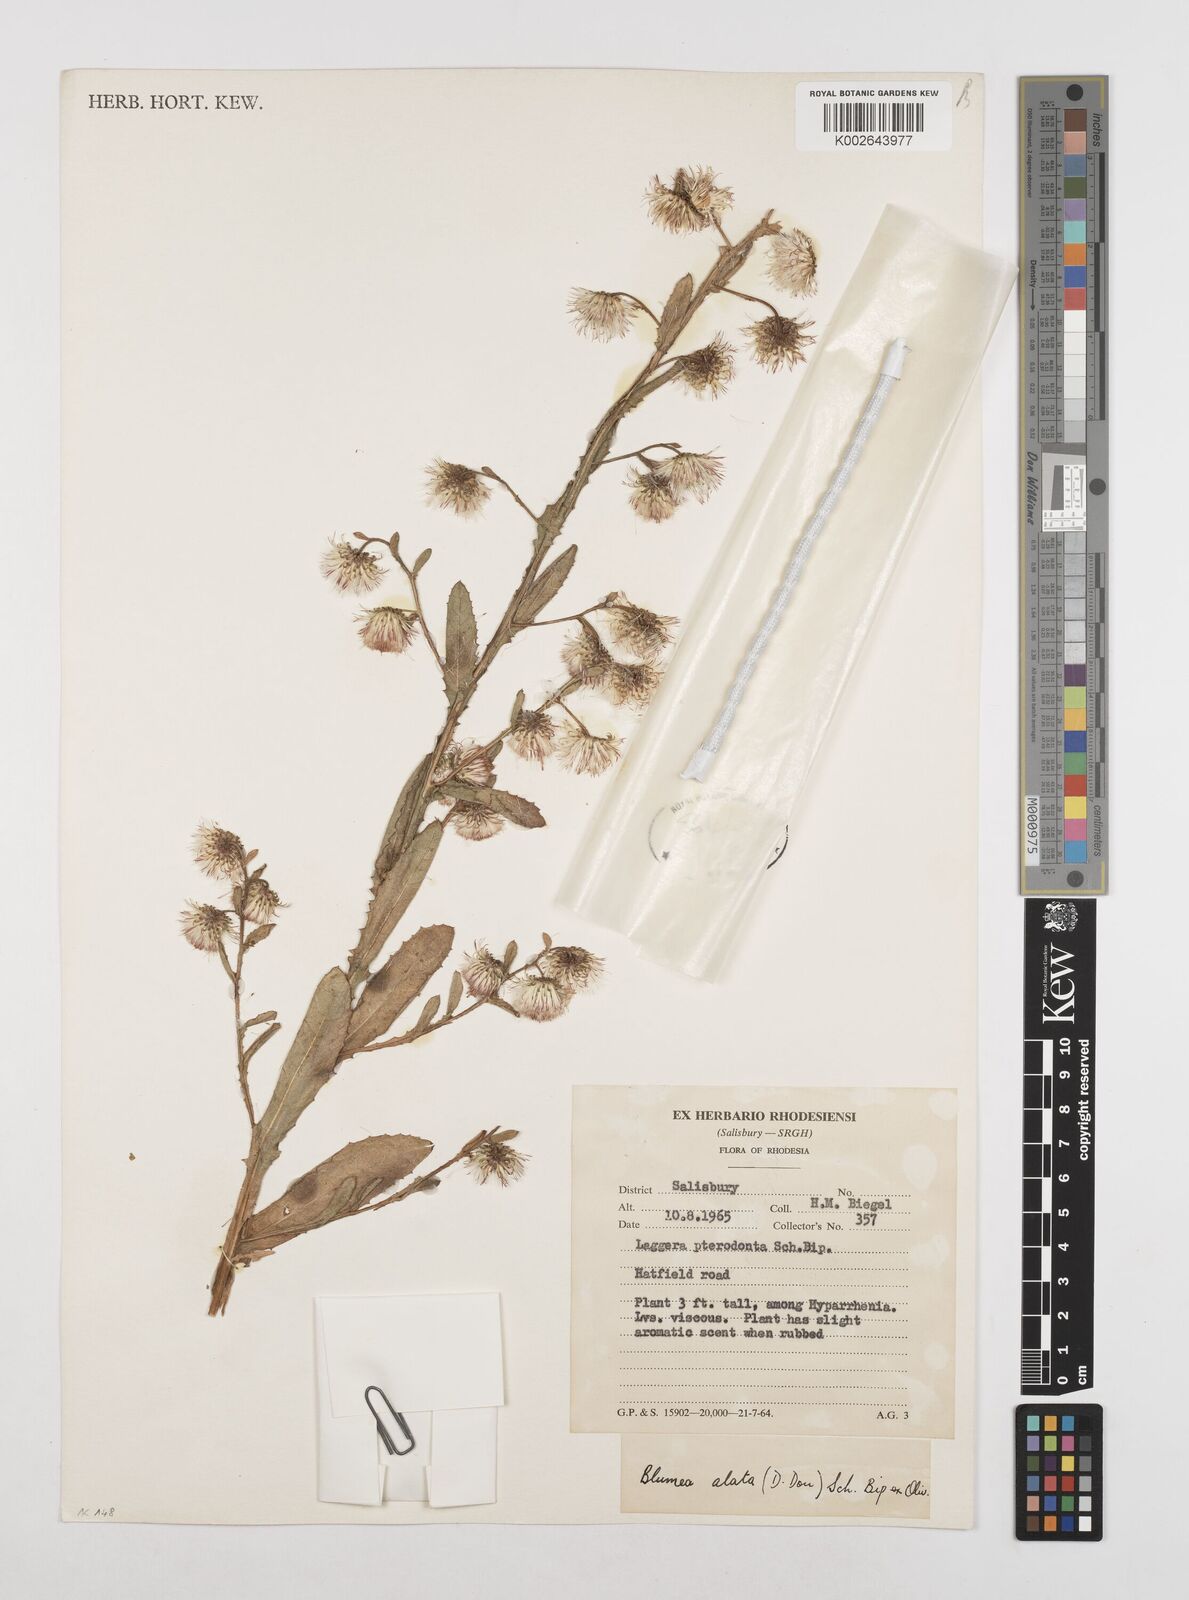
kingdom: Plantae
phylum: Tracheophyta
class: Magnoliopsida
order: Asterales
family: Asteraceae
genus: Laggera
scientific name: Laggera crispata
